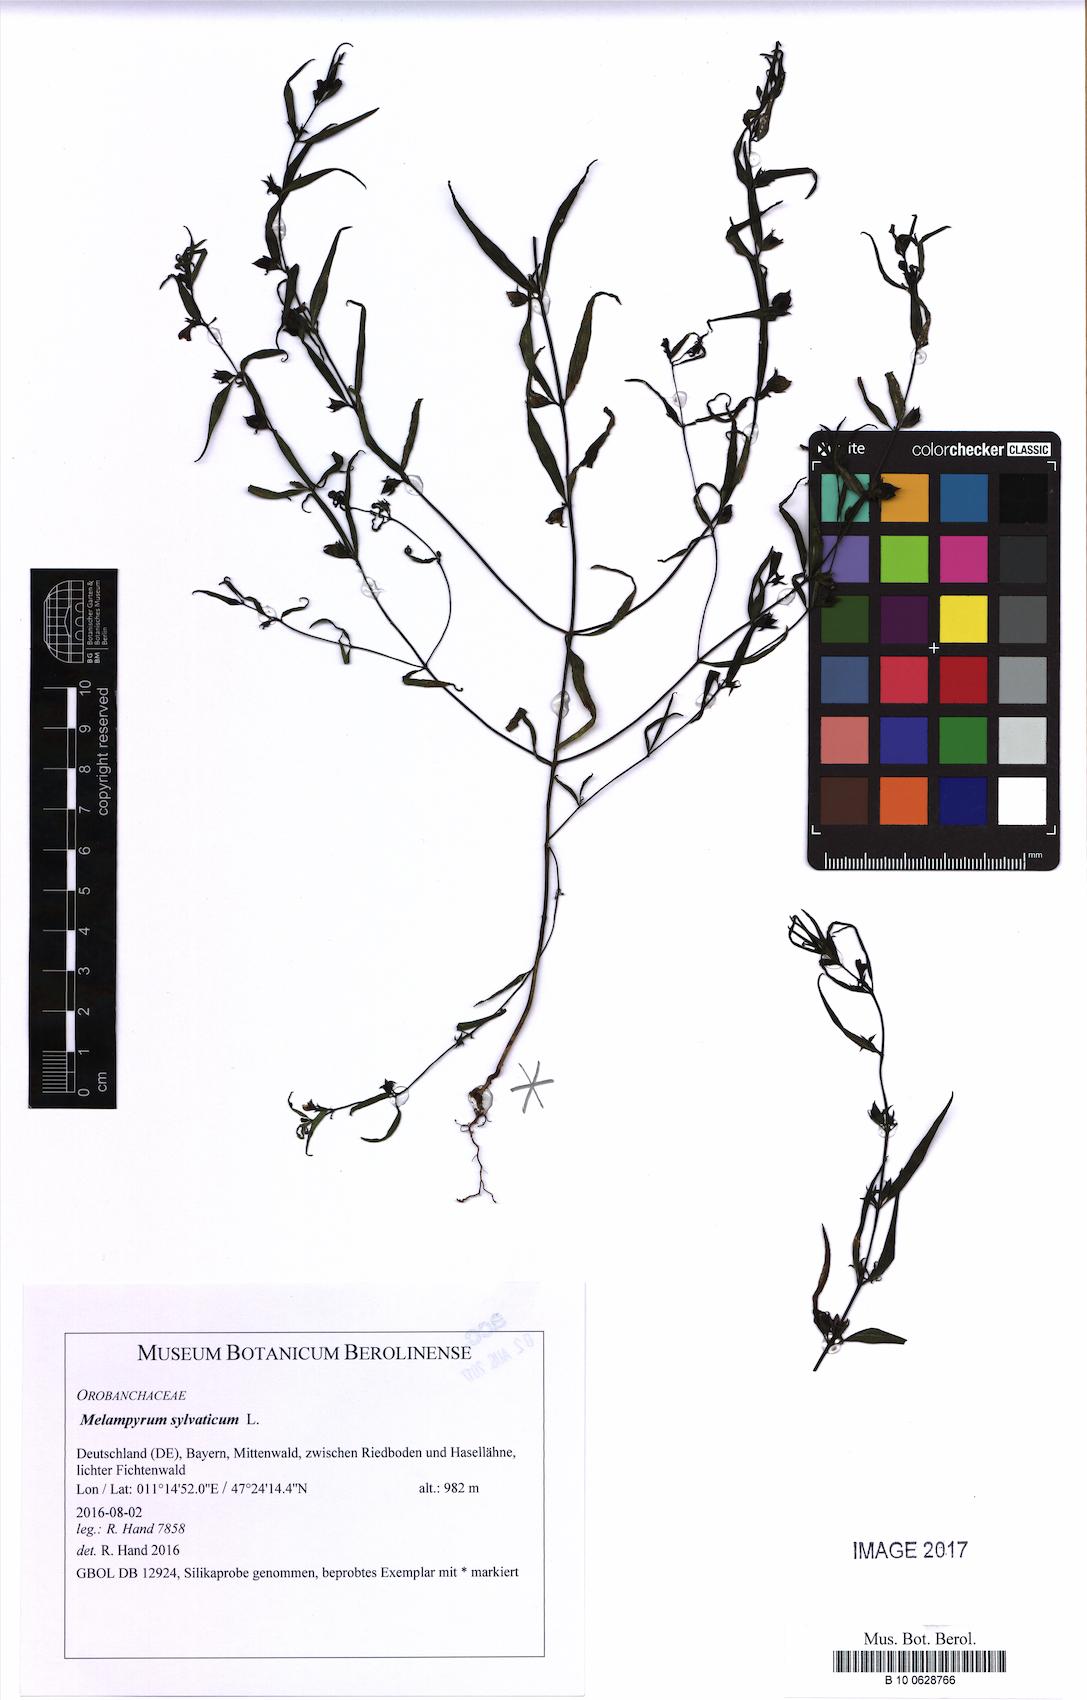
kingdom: Plantae
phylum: Tracheophyta
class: Magnoliopsida
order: Lamiales
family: Orobanchaceae
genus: Melampyrum
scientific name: Melampyrum sylvaticum
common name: Small cow-wheat
